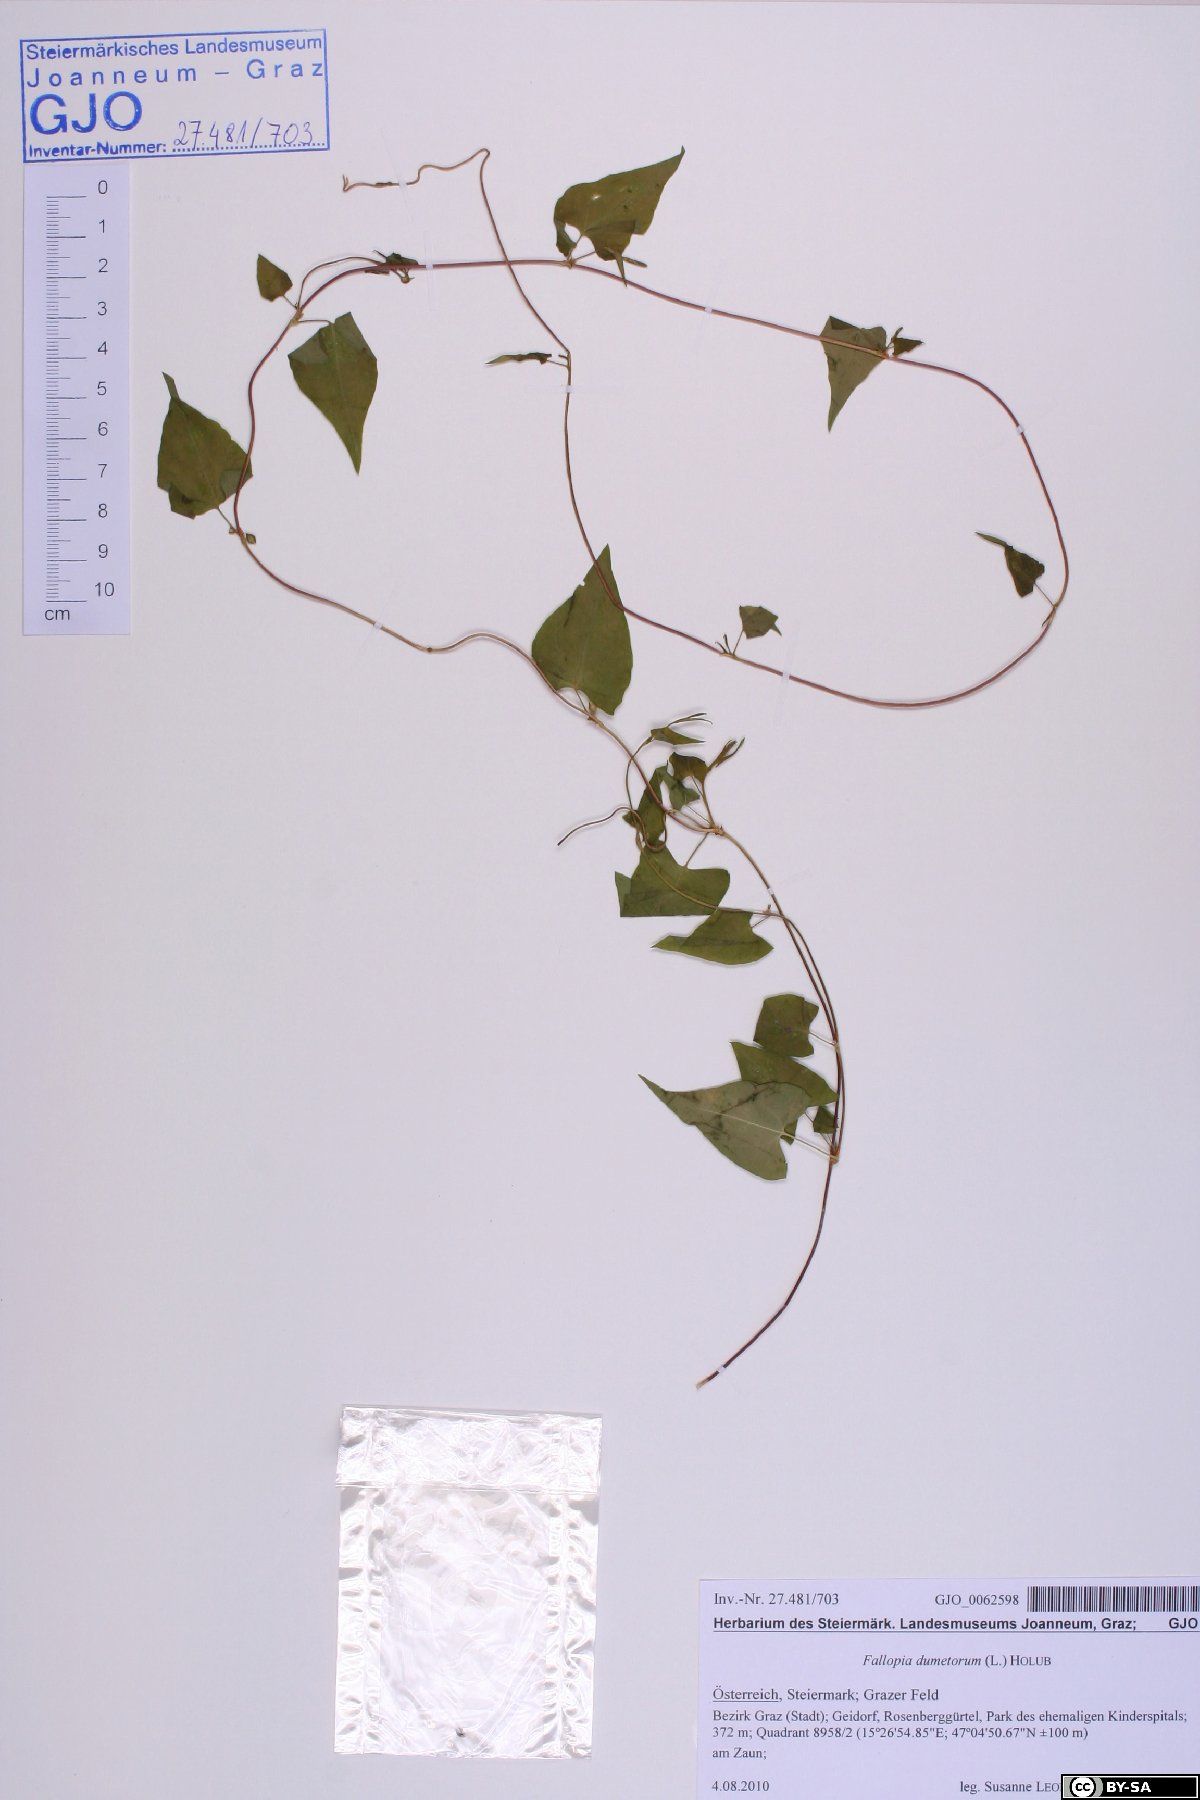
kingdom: Plantae
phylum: Tracheophyta
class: Magnoliopsida
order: Caryophyllales
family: Polygonaceae
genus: Fallopia
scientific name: Fallopia dumetorum
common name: Copse-bindweed
